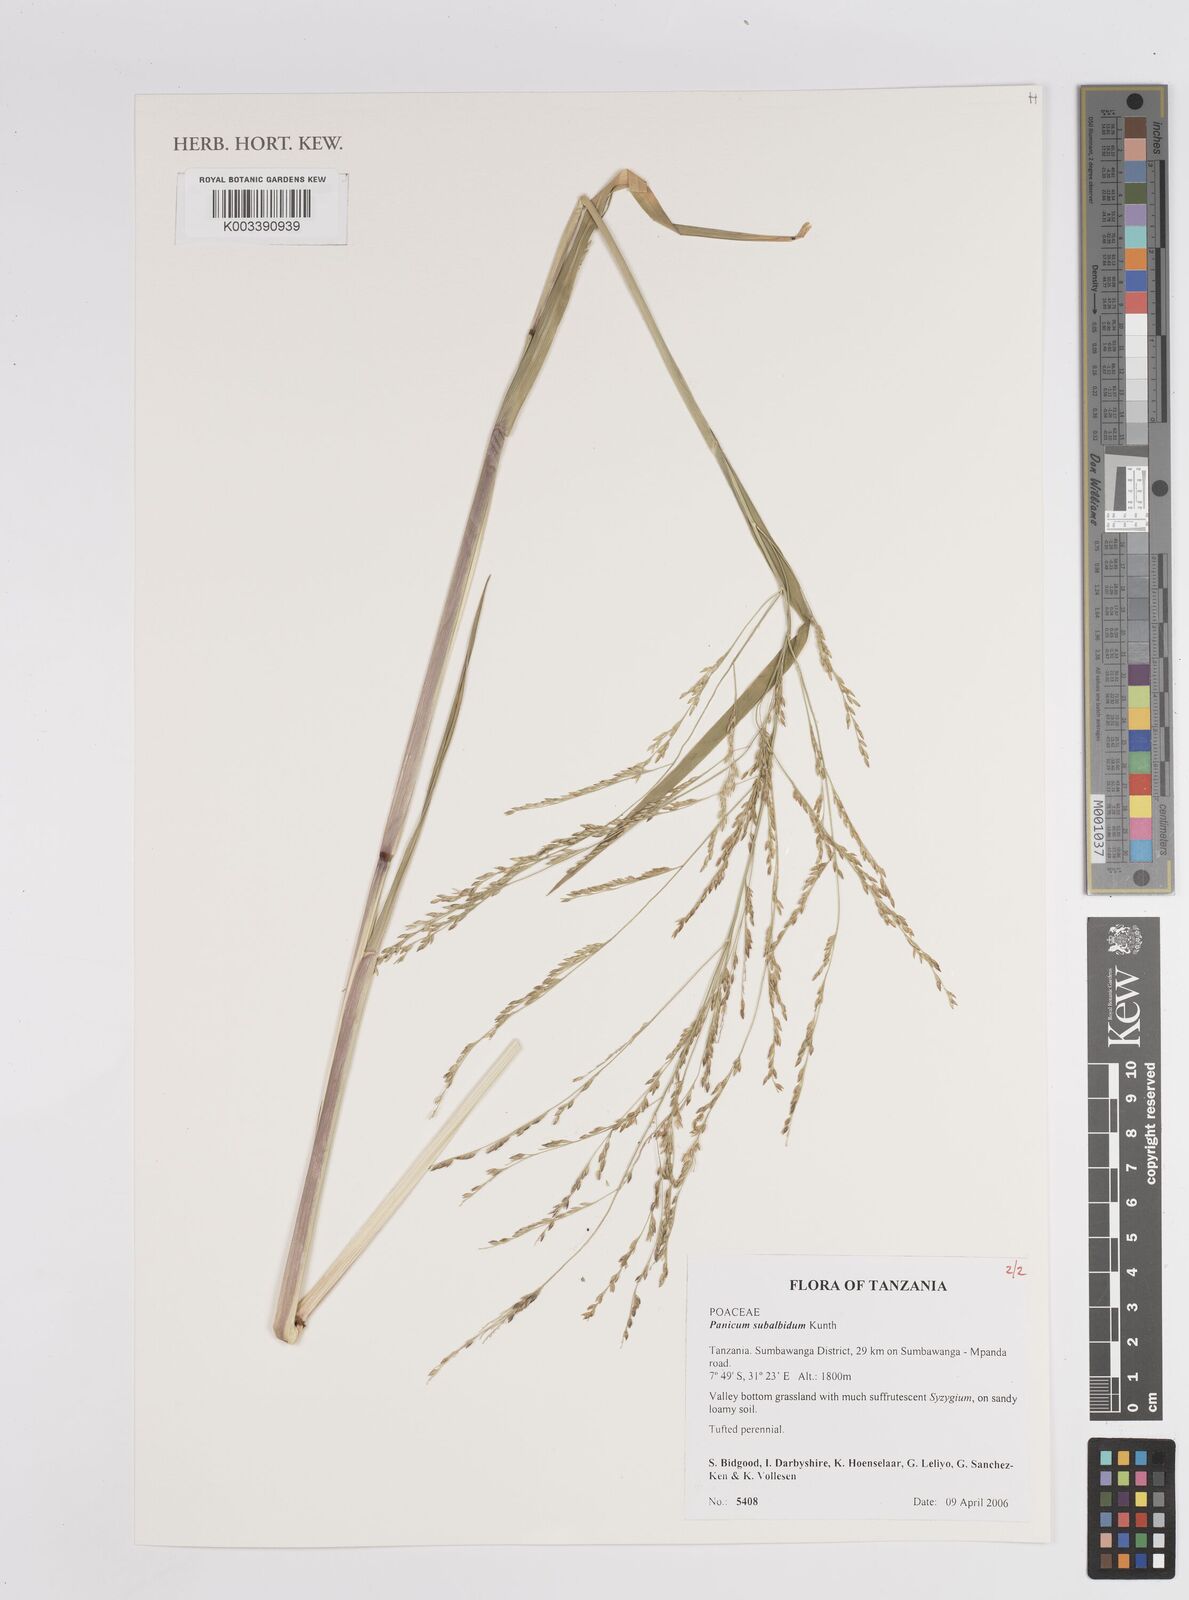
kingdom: Plantae
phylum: Tracheophyta
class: Liliopsida
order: Poales
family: Poaceae
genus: Panicum
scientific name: Panicum subalbidum
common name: Elbow buffalo grass
